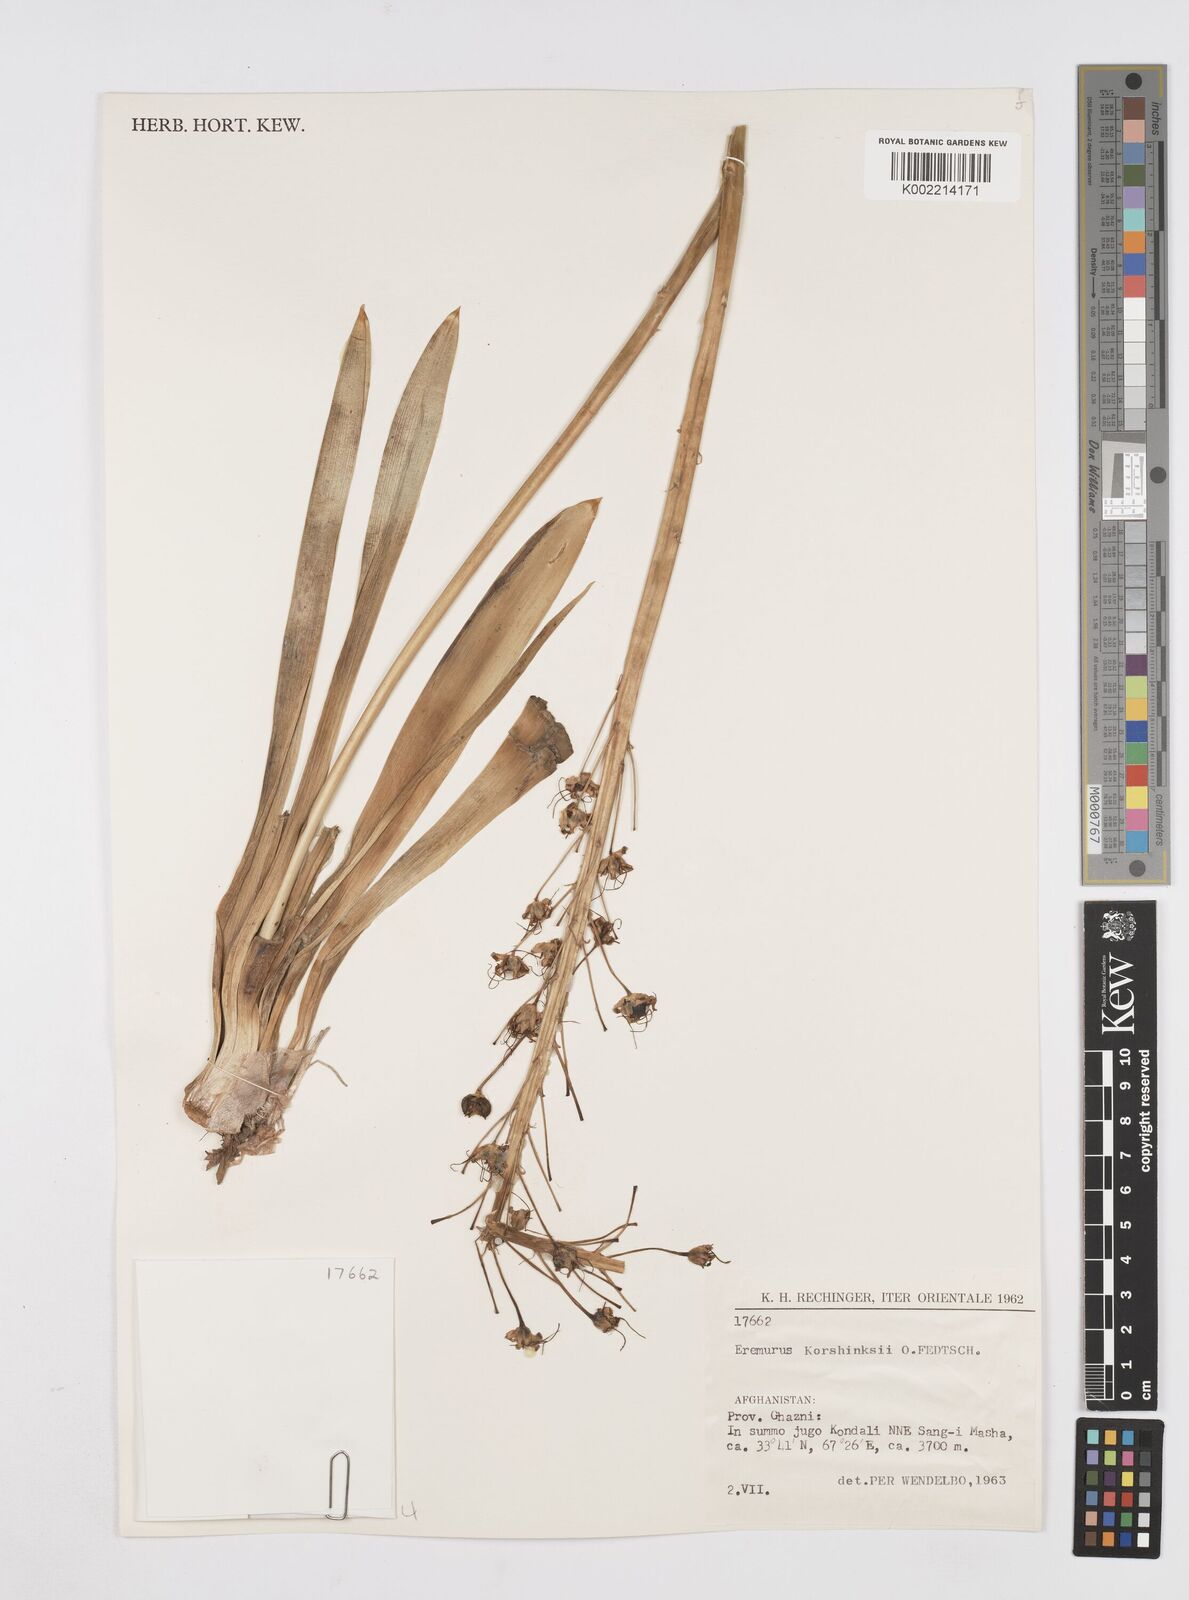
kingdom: Plantae
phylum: Tracheophyta
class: Liliopsida
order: Asparagales
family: Asphodelaceae
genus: Eremurus
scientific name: Eremurus korshinskyi
